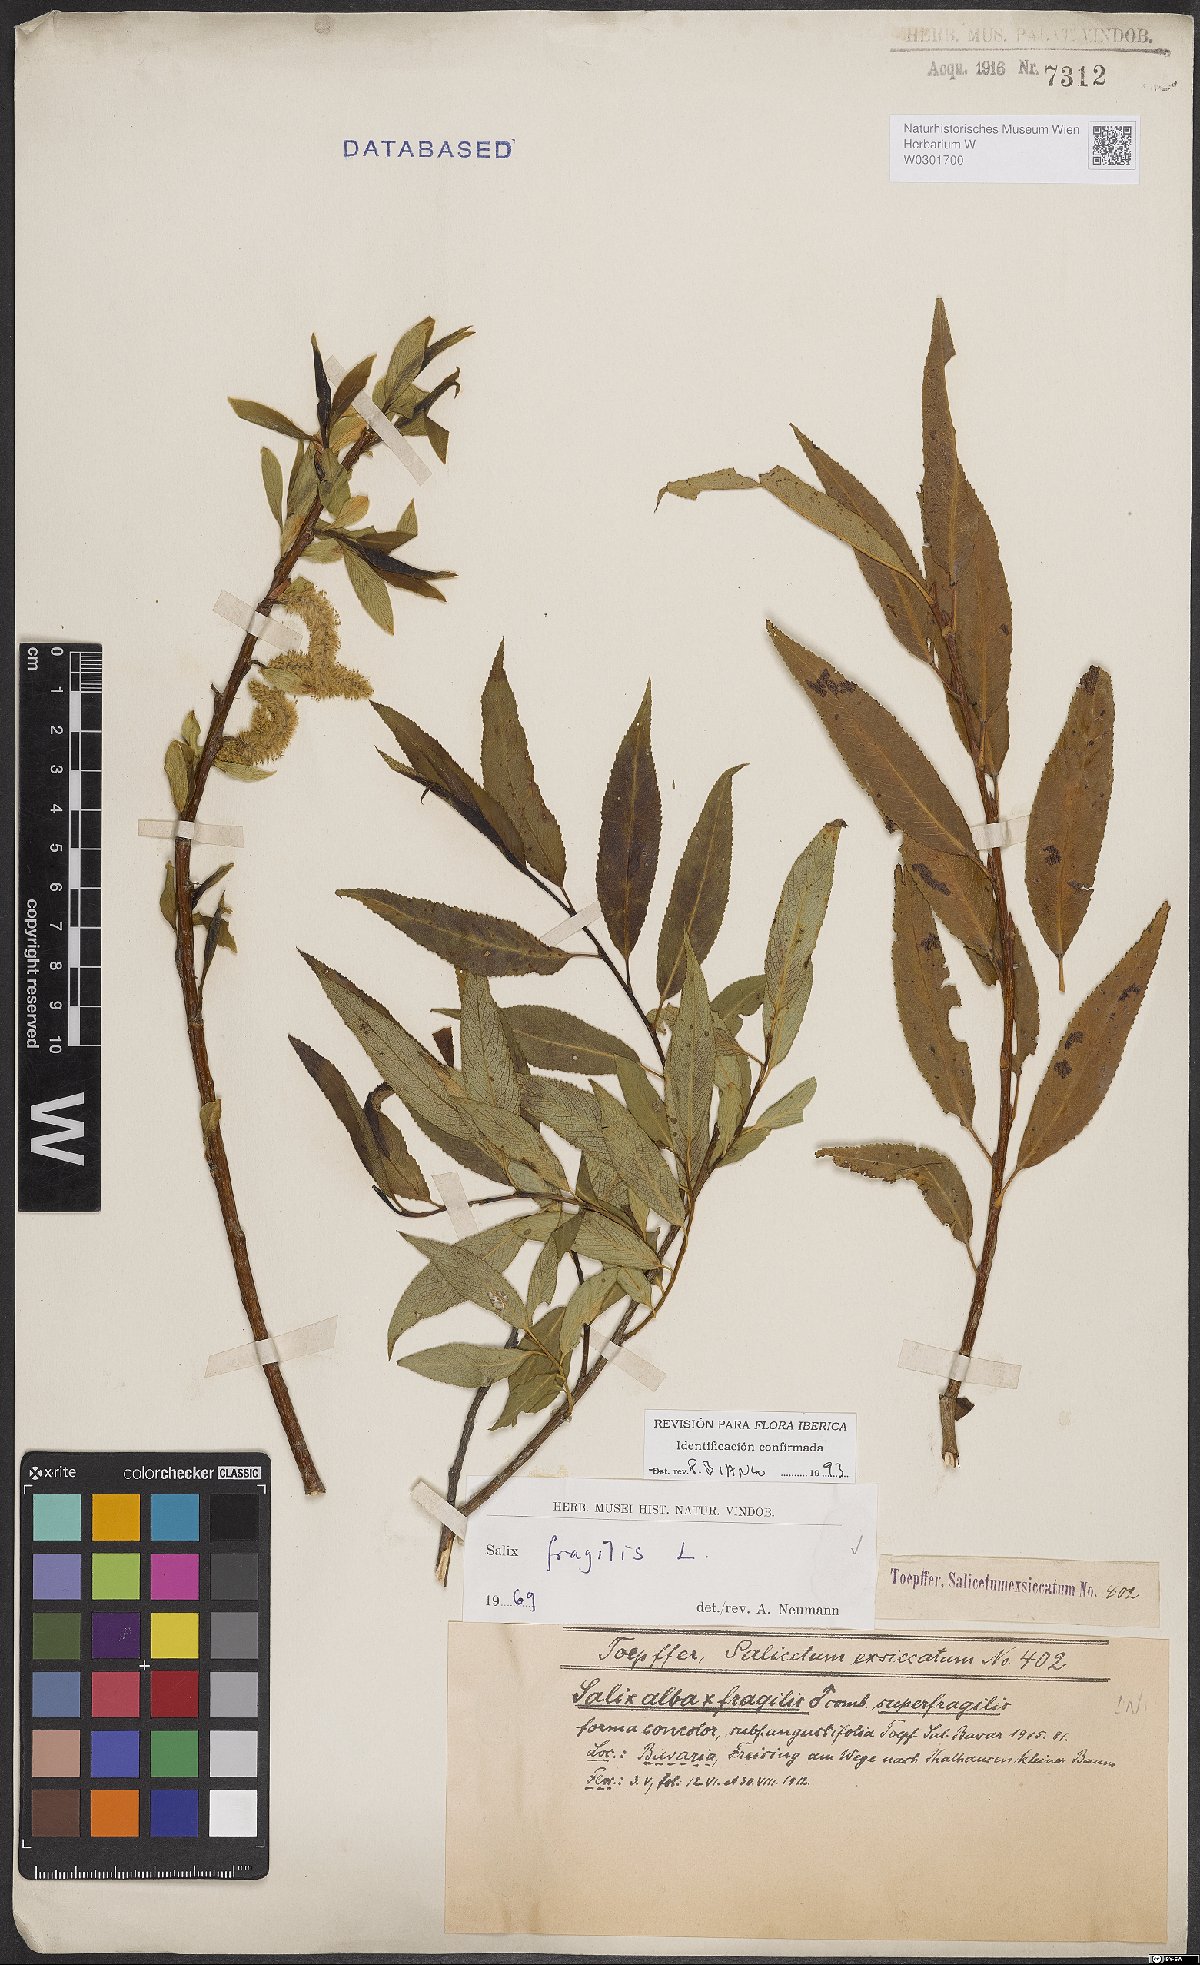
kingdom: Plantae
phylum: Tracheophyta
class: Magnoliopsida
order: Malpighiales
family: Salicaceae
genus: Salix
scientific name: Salix fragilis
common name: Crack willow
